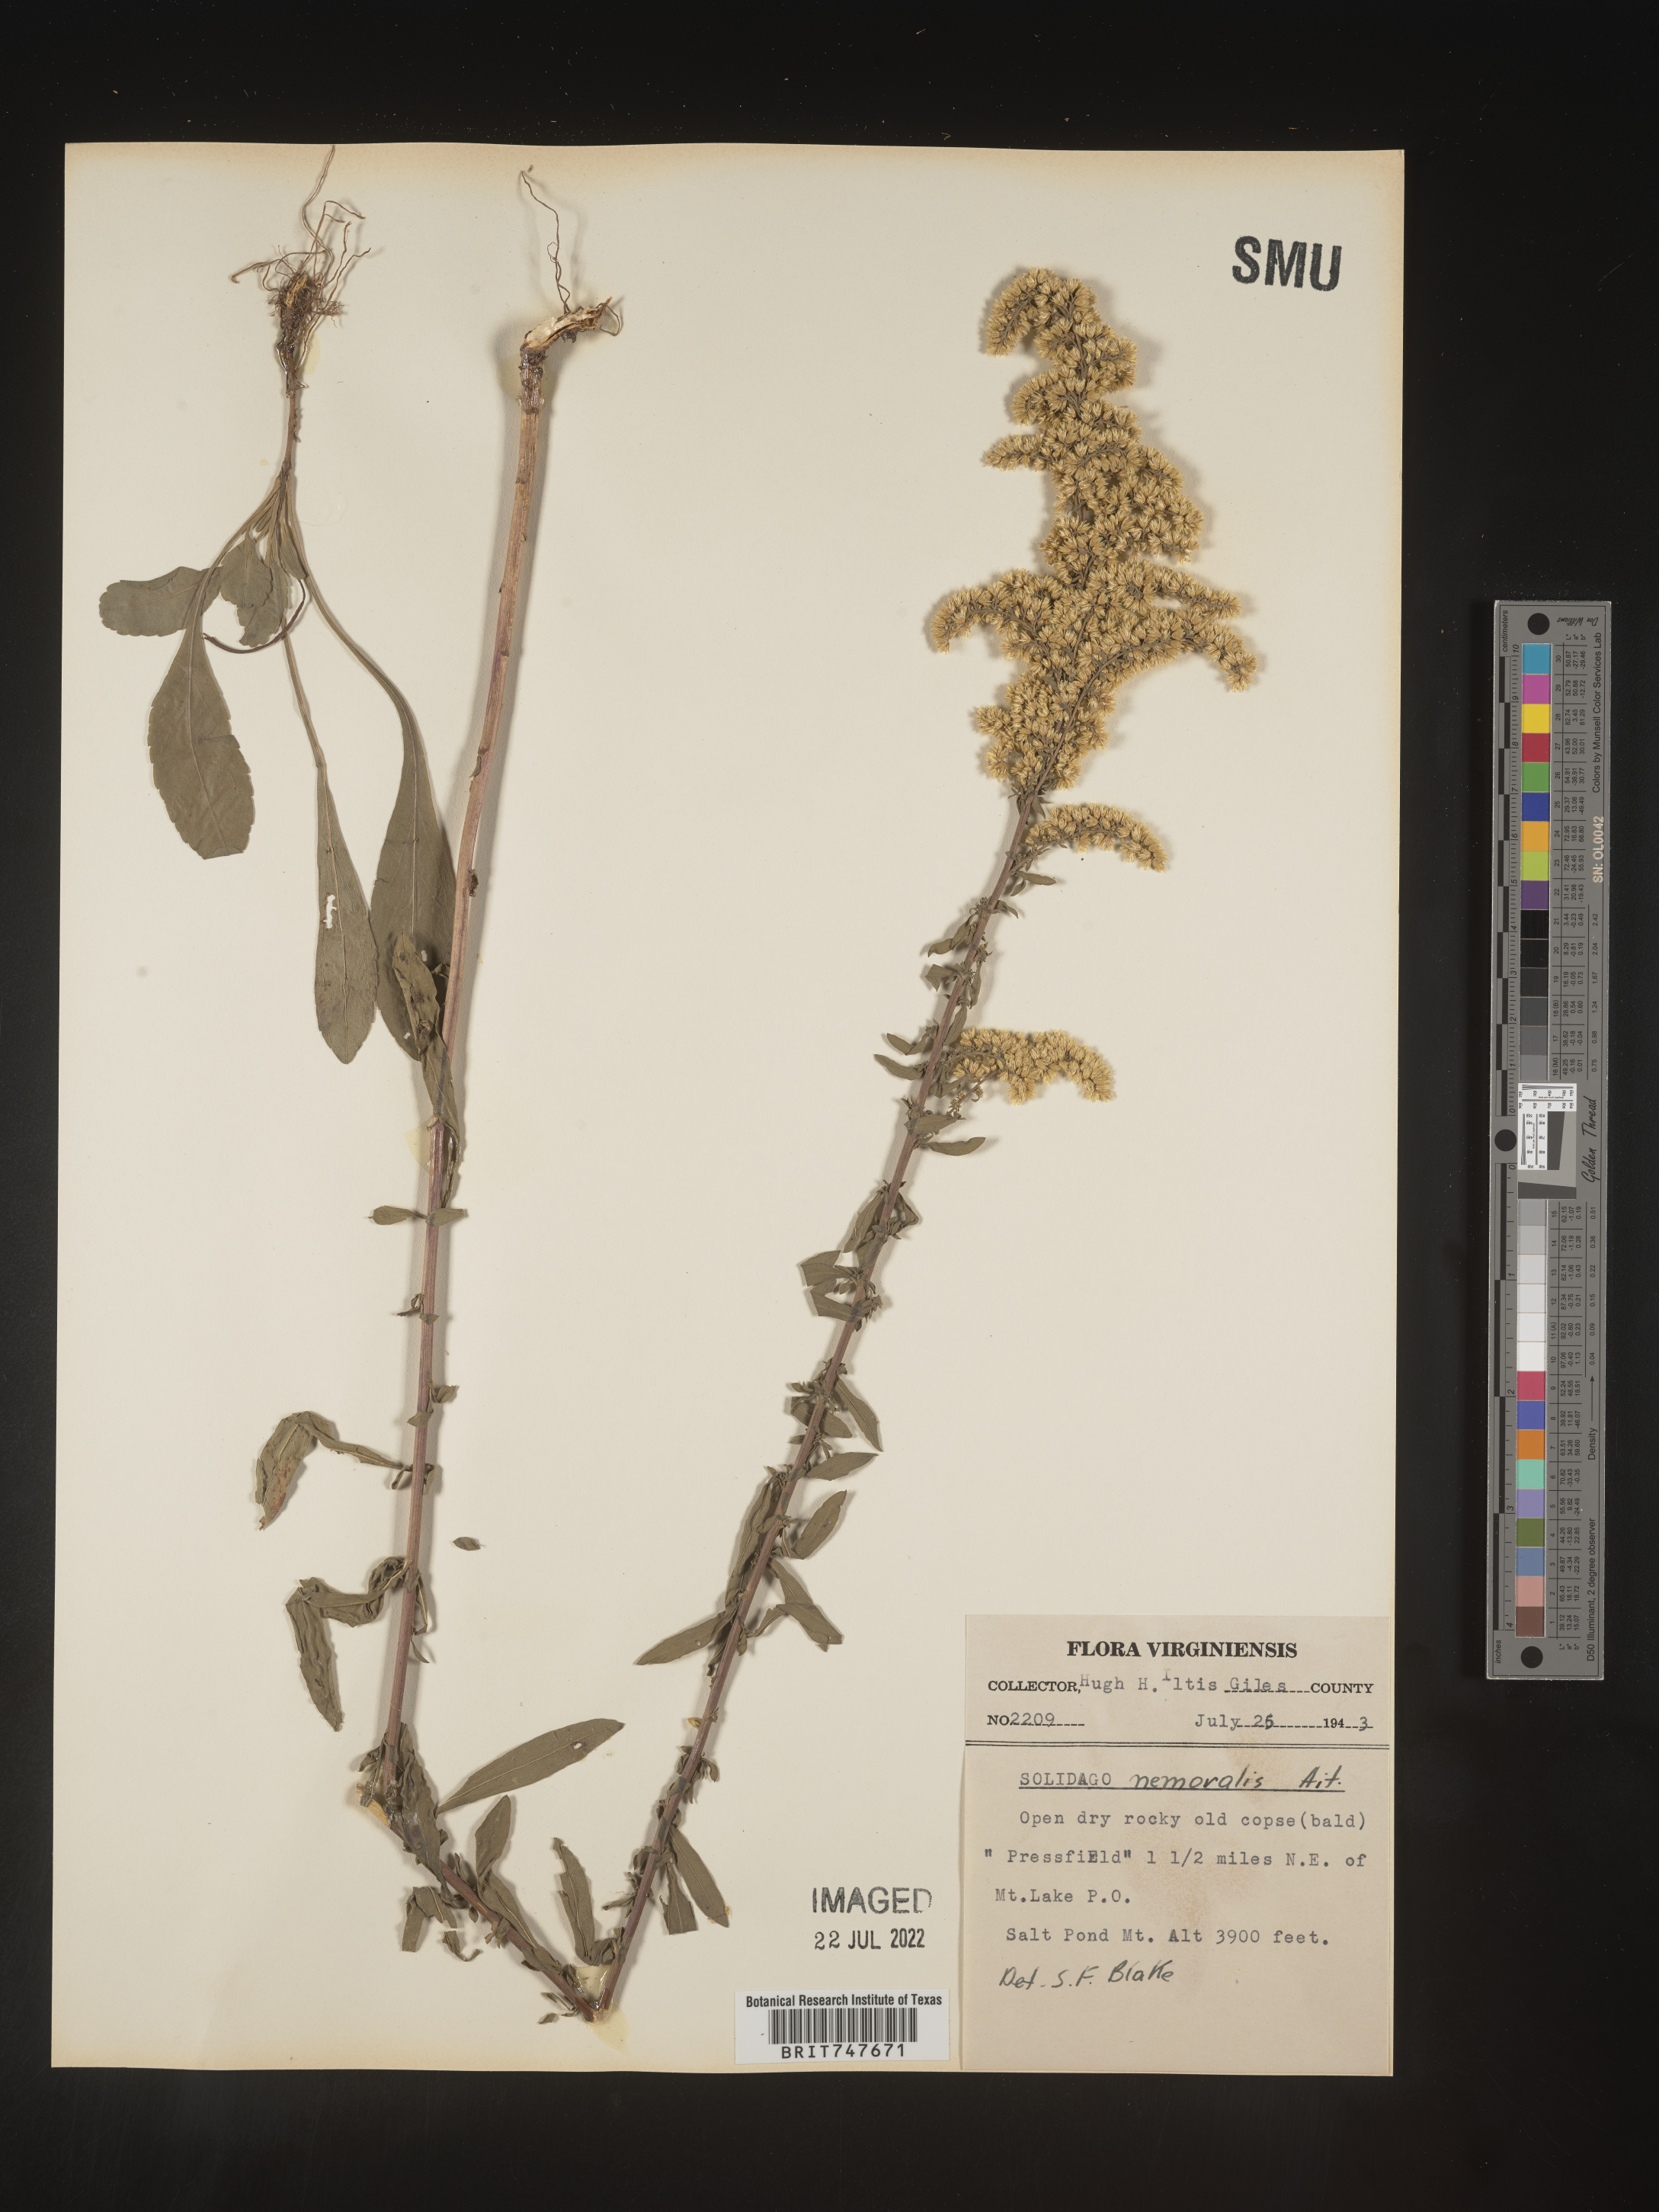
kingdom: Plantae
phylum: Tracheophyta
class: Magnoliopsida
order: Asterales
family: Asteraceae
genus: Solidago
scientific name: Solidago nemoralis
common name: Grey goldenrod
